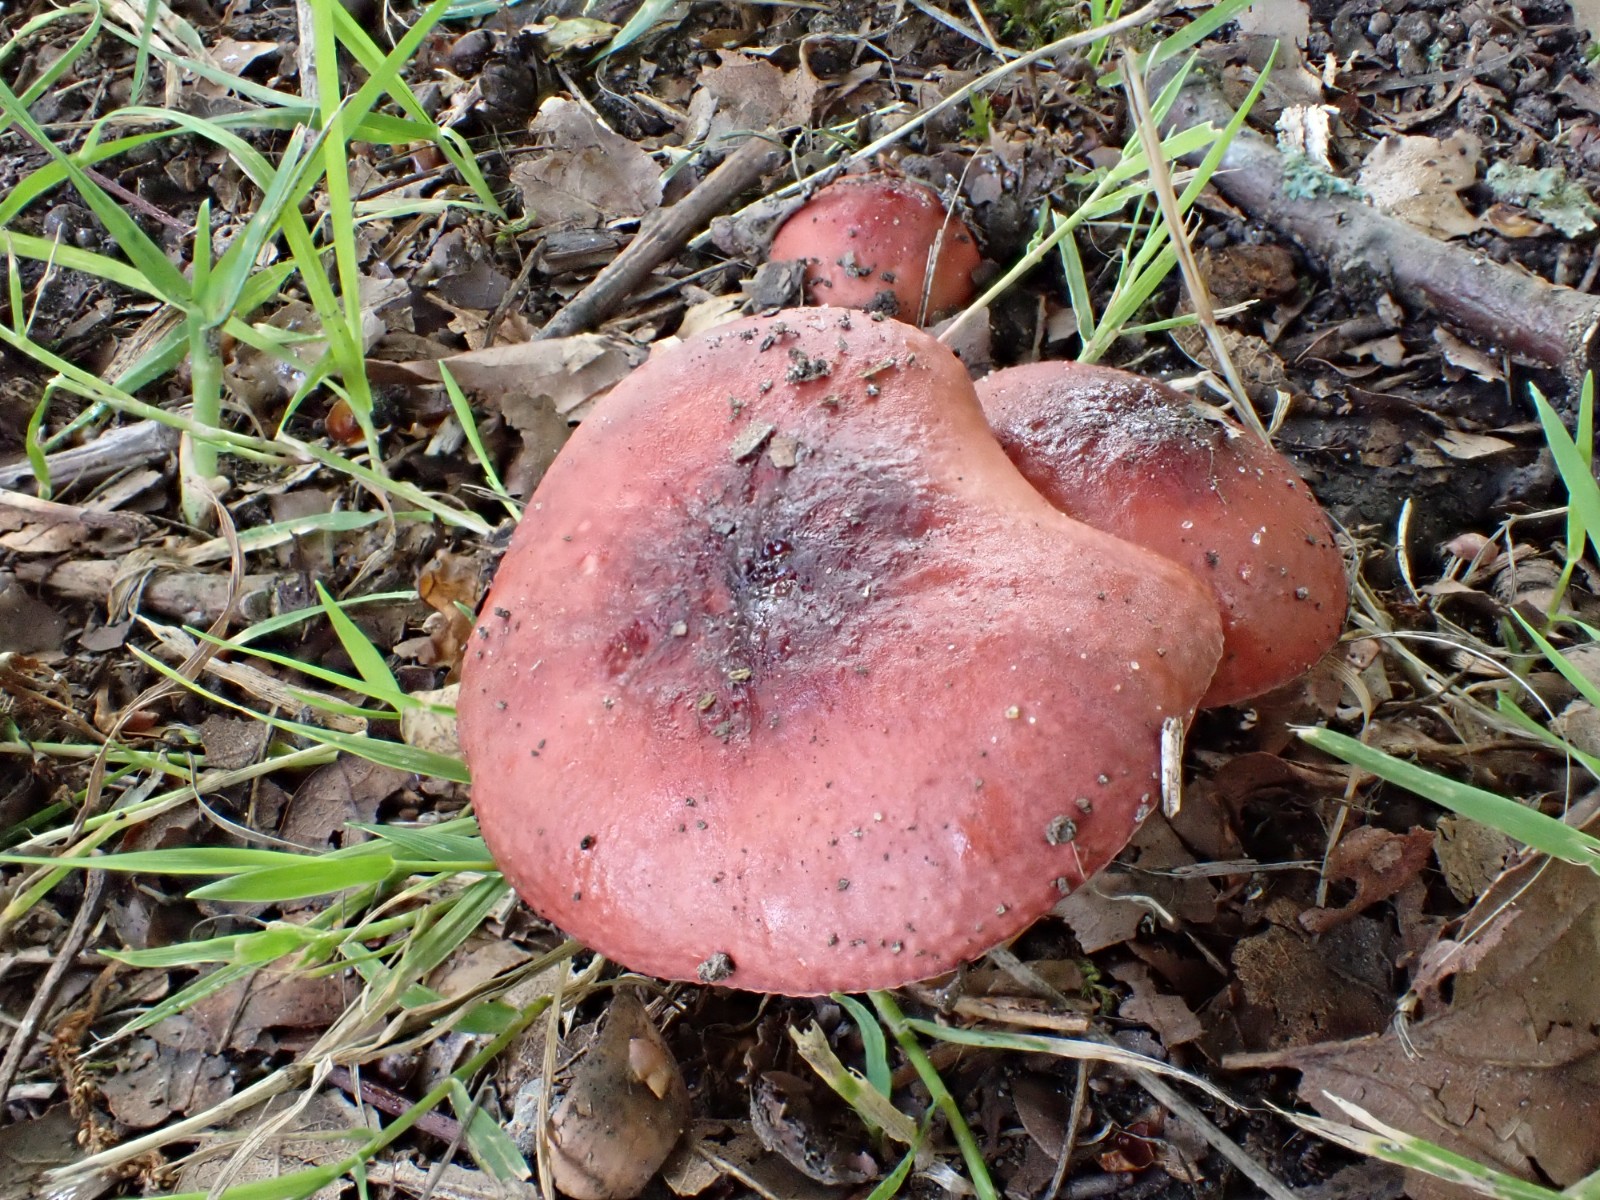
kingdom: Fungi
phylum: Basidiomycota
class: Agaricomycetes
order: Russulales
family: Russulaceae
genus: Russula
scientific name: Russula cuprea
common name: kanel-skørhat
